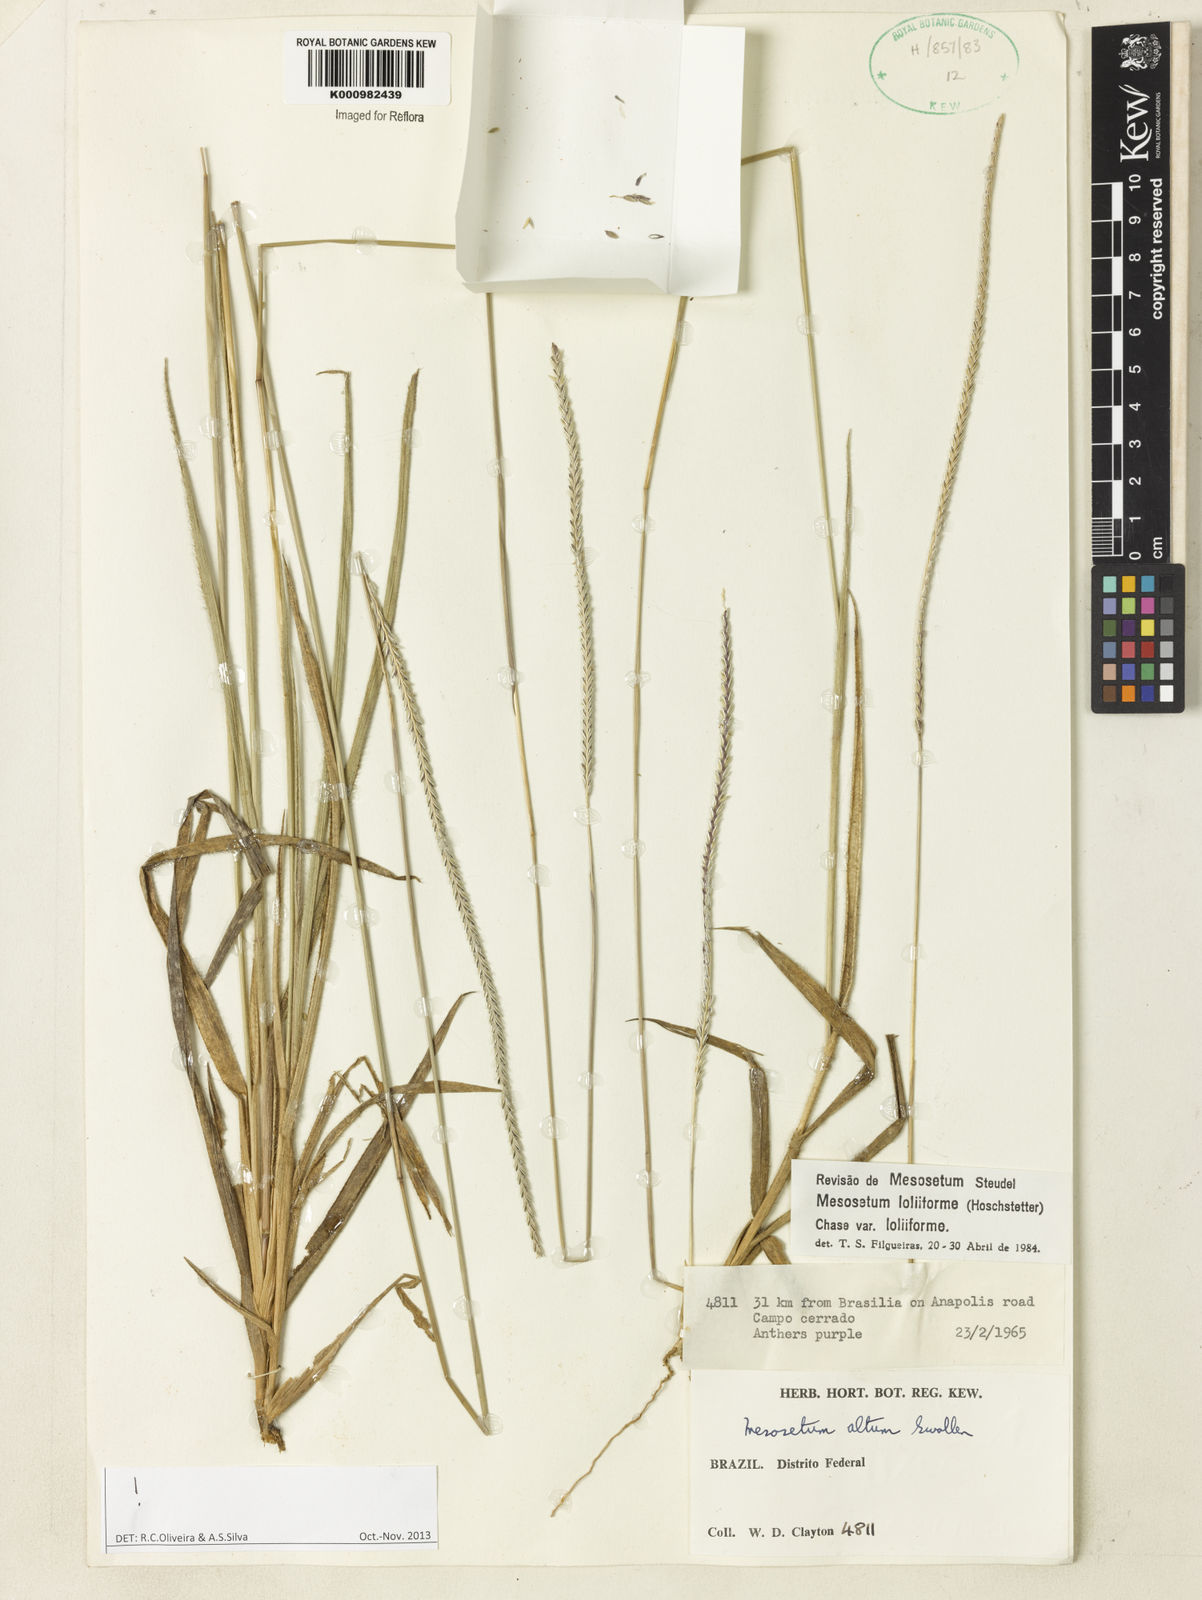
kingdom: Plantae
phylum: Tracheophyta
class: Liliopsida
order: Poales
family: Poaceae
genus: Mesosetum
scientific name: Mesosetum
